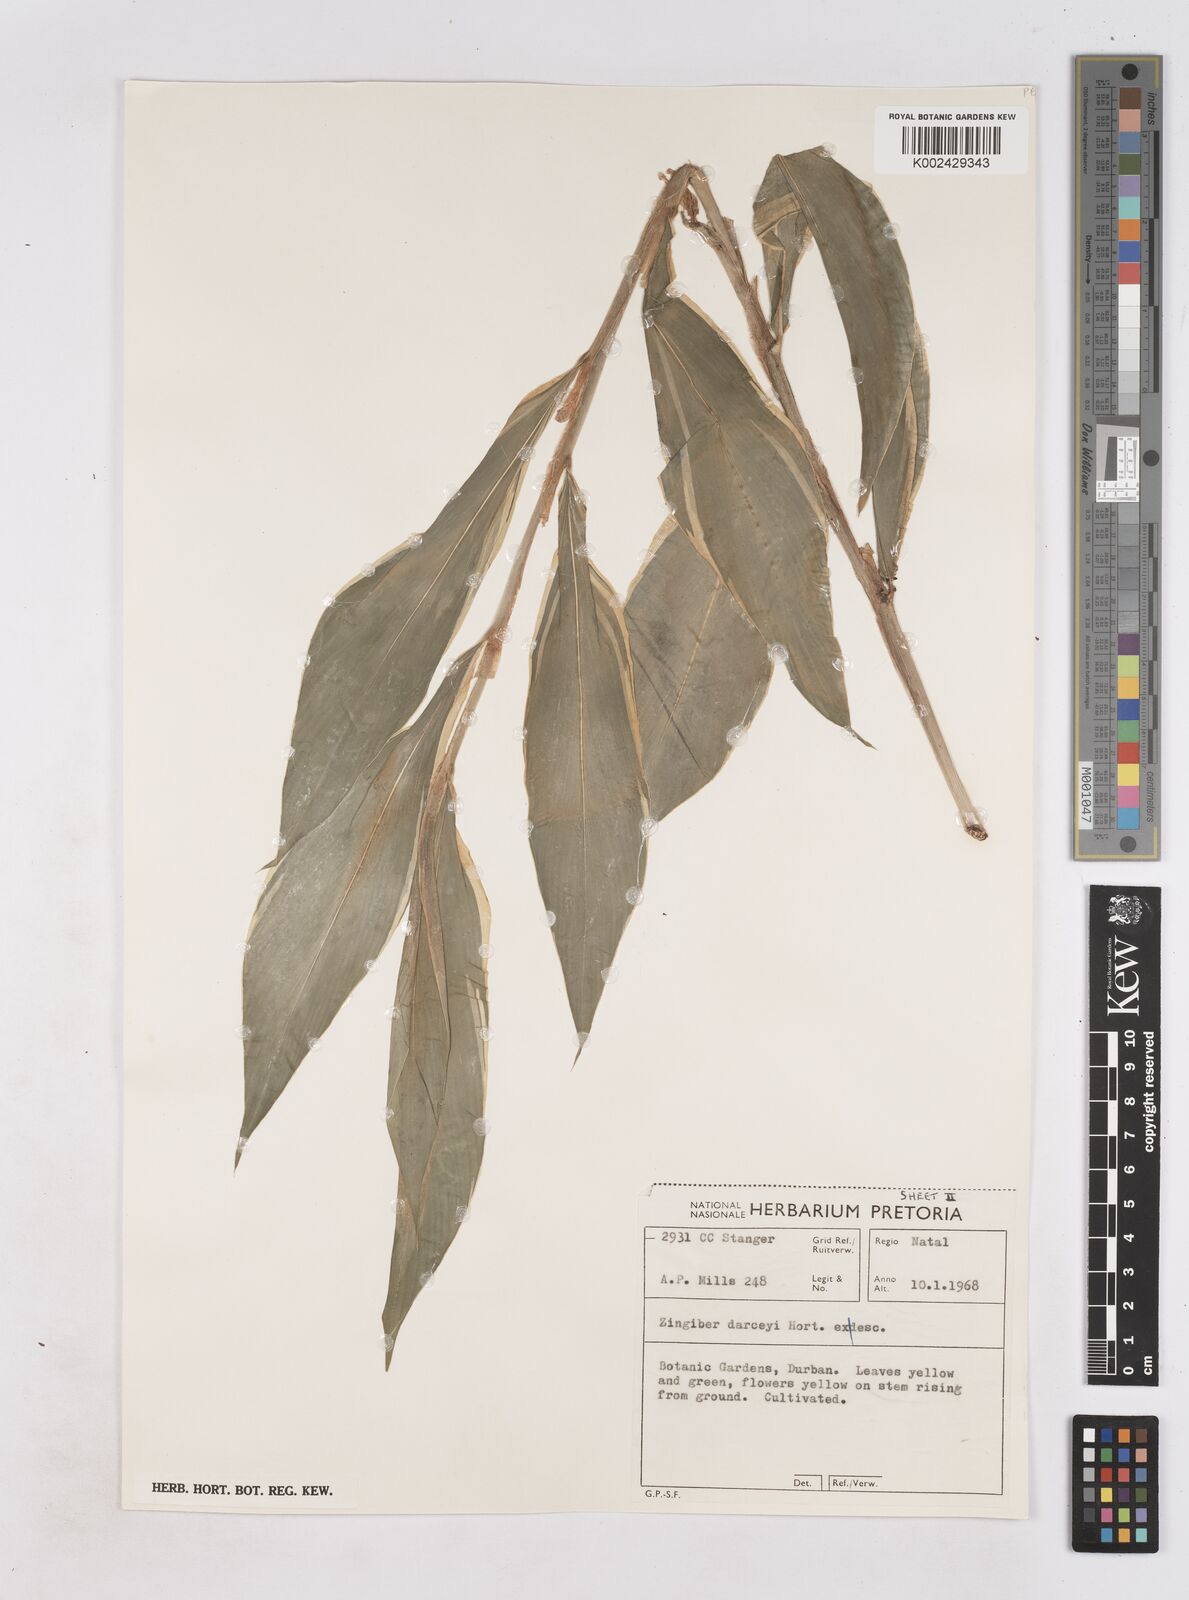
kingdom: Plantae
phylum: Tracheophyta
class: Liliopsida
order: Zingiberales
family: Zingiberaceae
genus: Zingiber
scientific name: Zingiber zerumbet
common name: Bitter ginger
